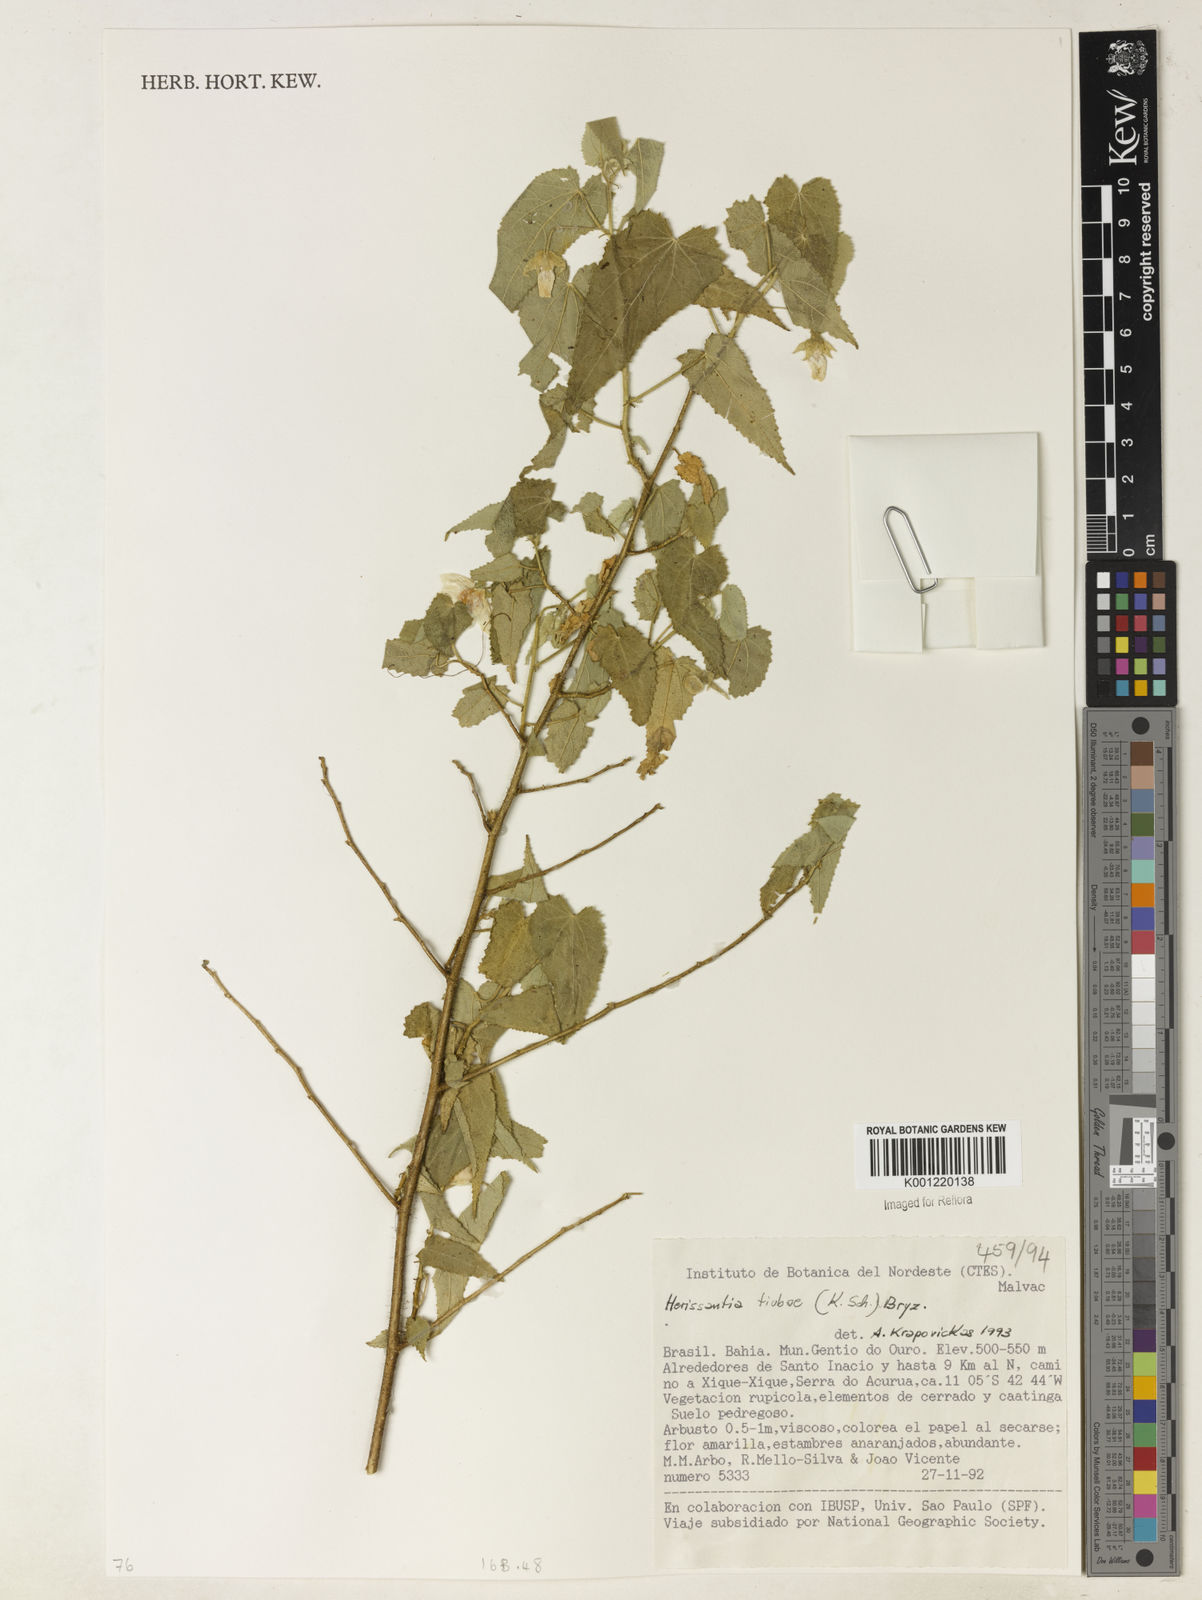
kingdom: Plantae
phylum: Tracheophyta
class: Magnoliopsida
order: Malvales
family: Malvaceae
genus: Herissantia
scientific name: Herissantia tiubae
